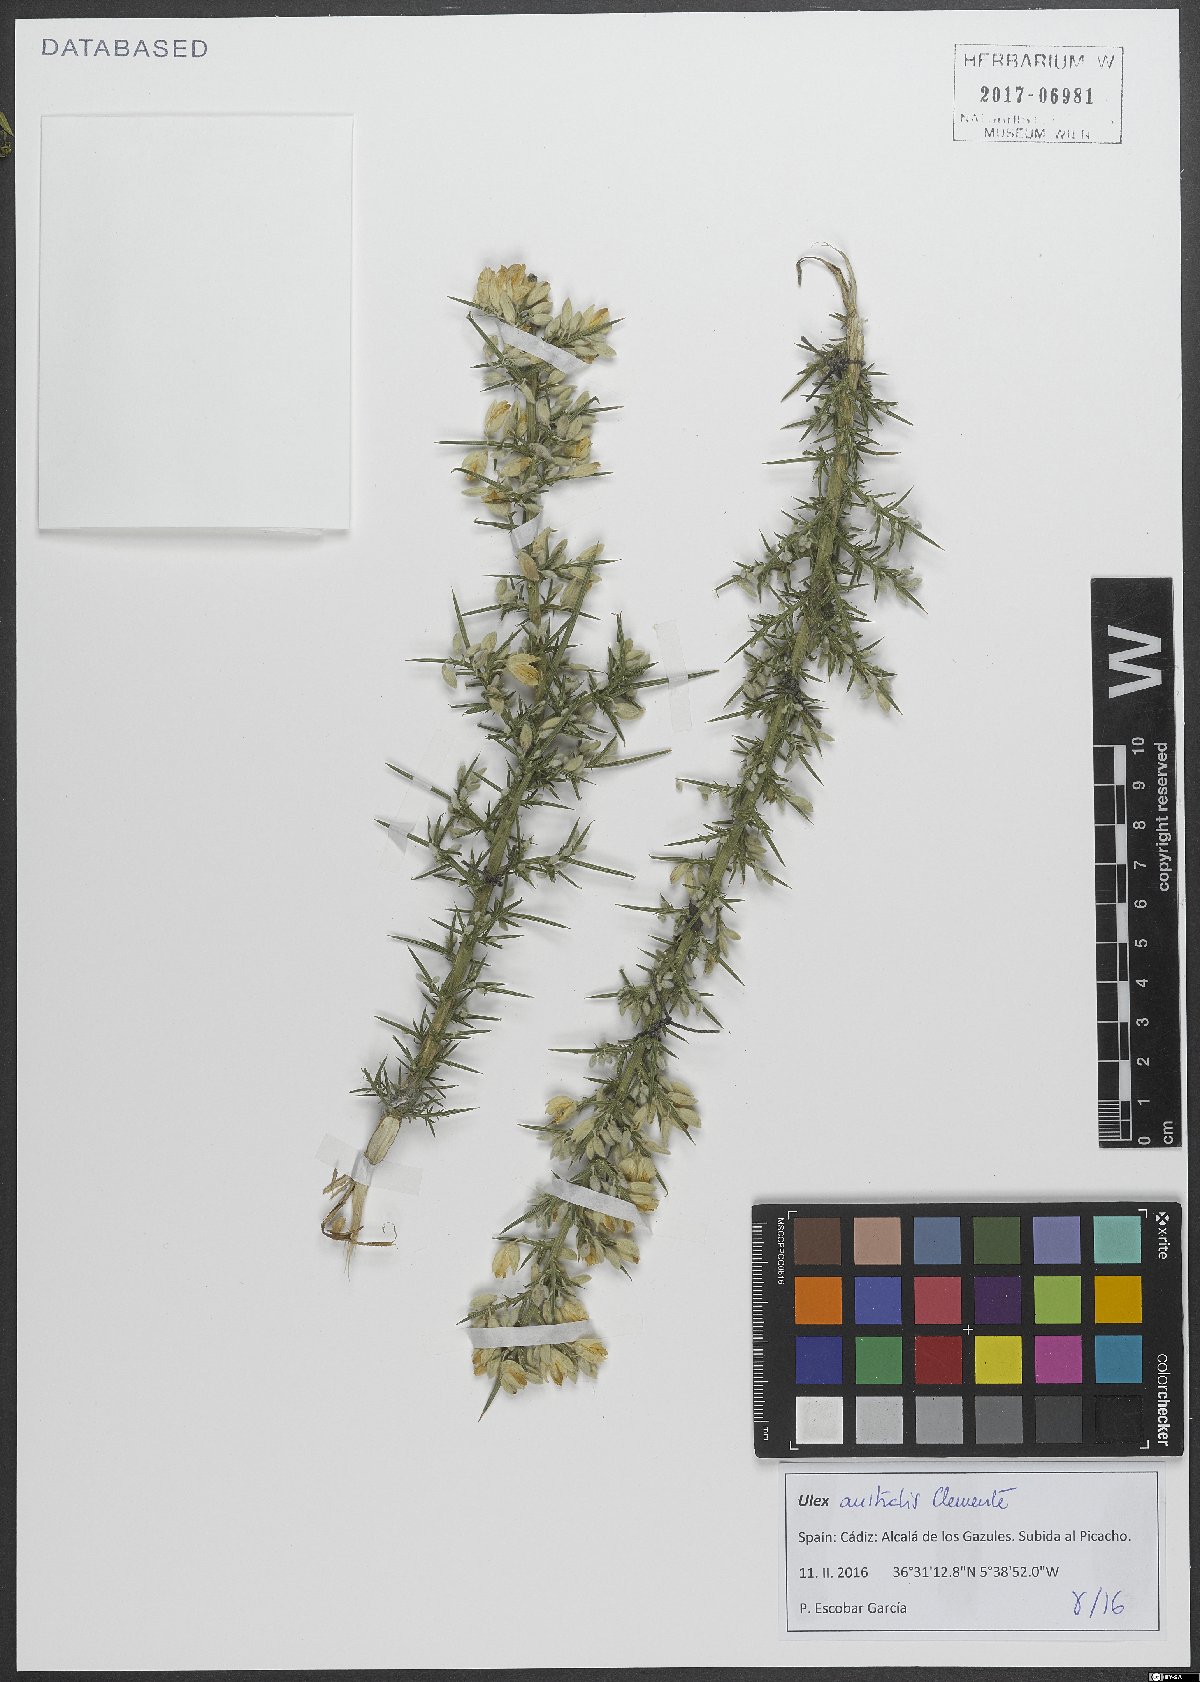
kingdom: Plantae
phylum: Tracheophyta
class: Magnoliopsida
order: Fabales
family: Fabaceae
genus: Ulex
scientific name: Ulex australis
